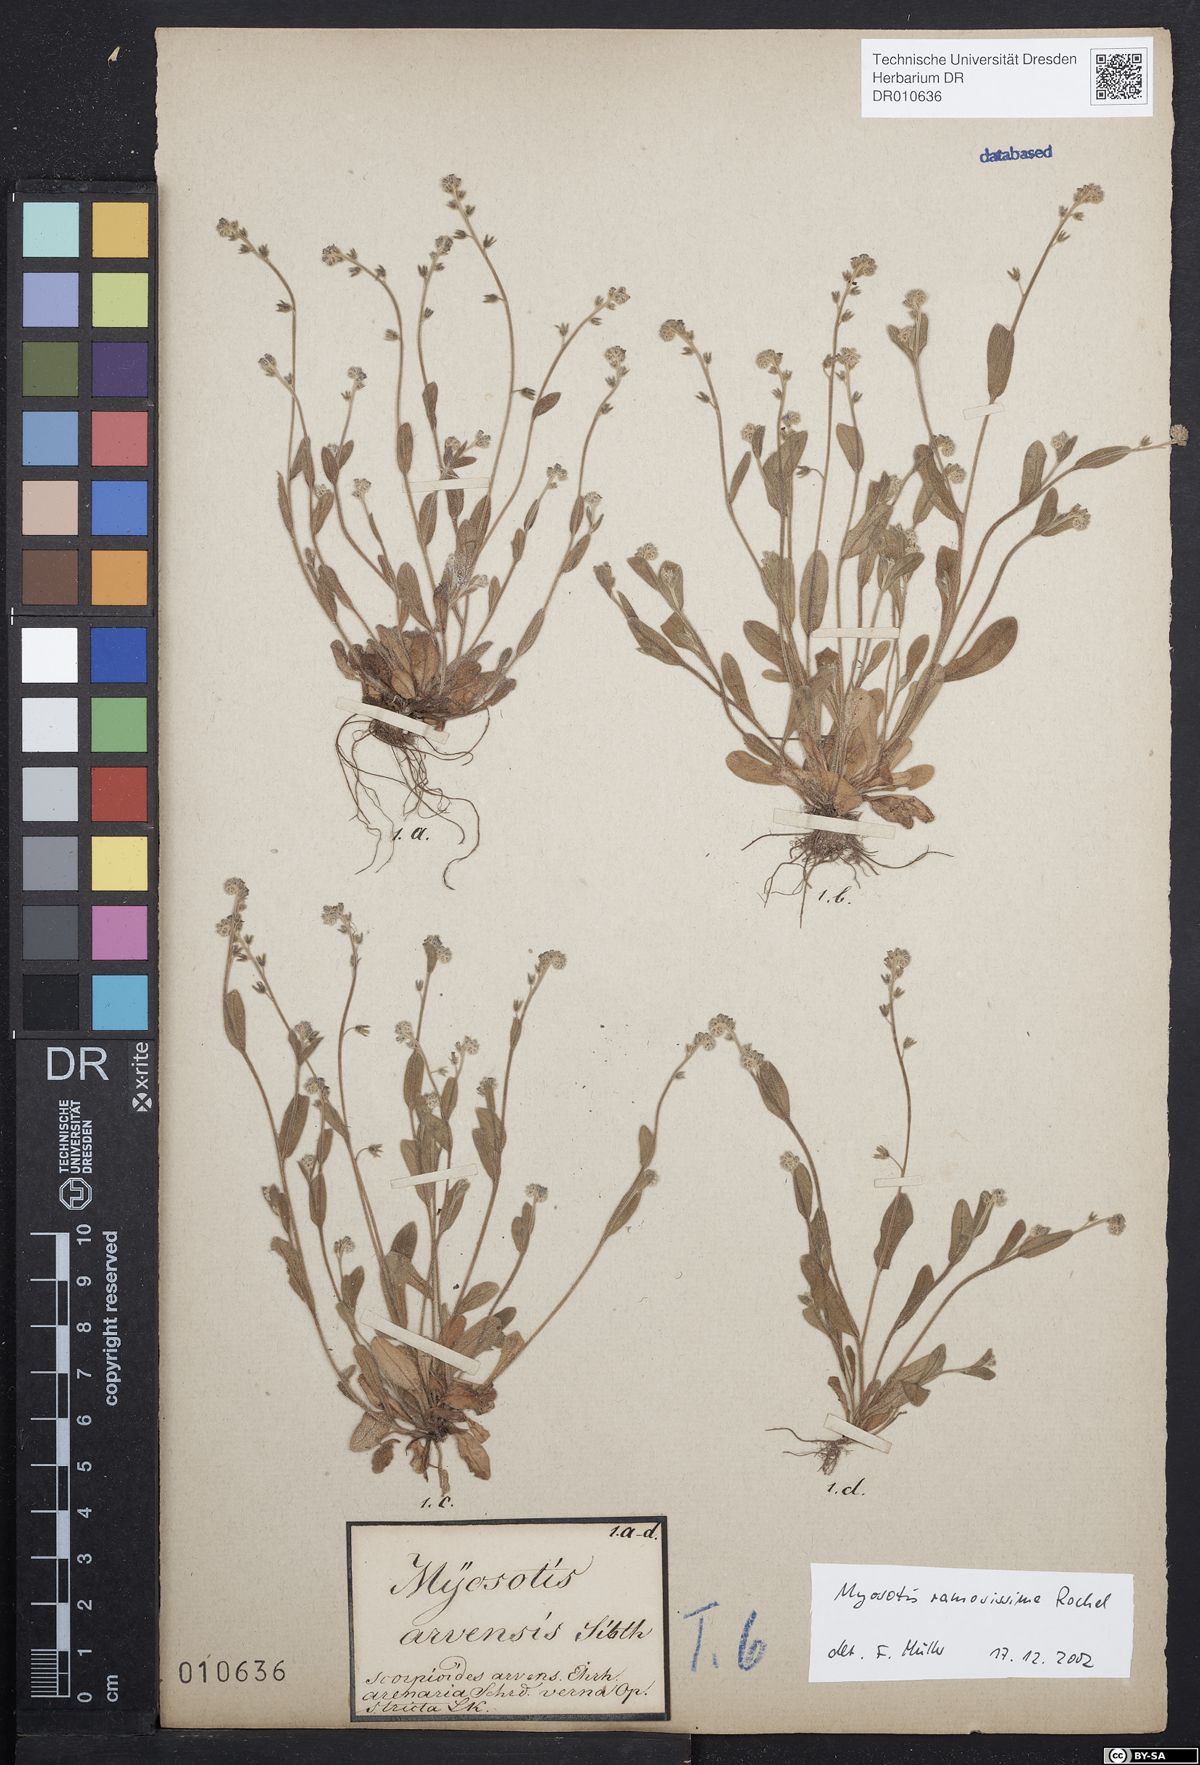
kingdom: Plantae
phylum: Tracheophyta
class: Magnoliopsida
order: Boraginales
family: Boraginaceae
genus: Myosotis
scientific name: Myosotis ramosissima
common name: Early forget-me-not
